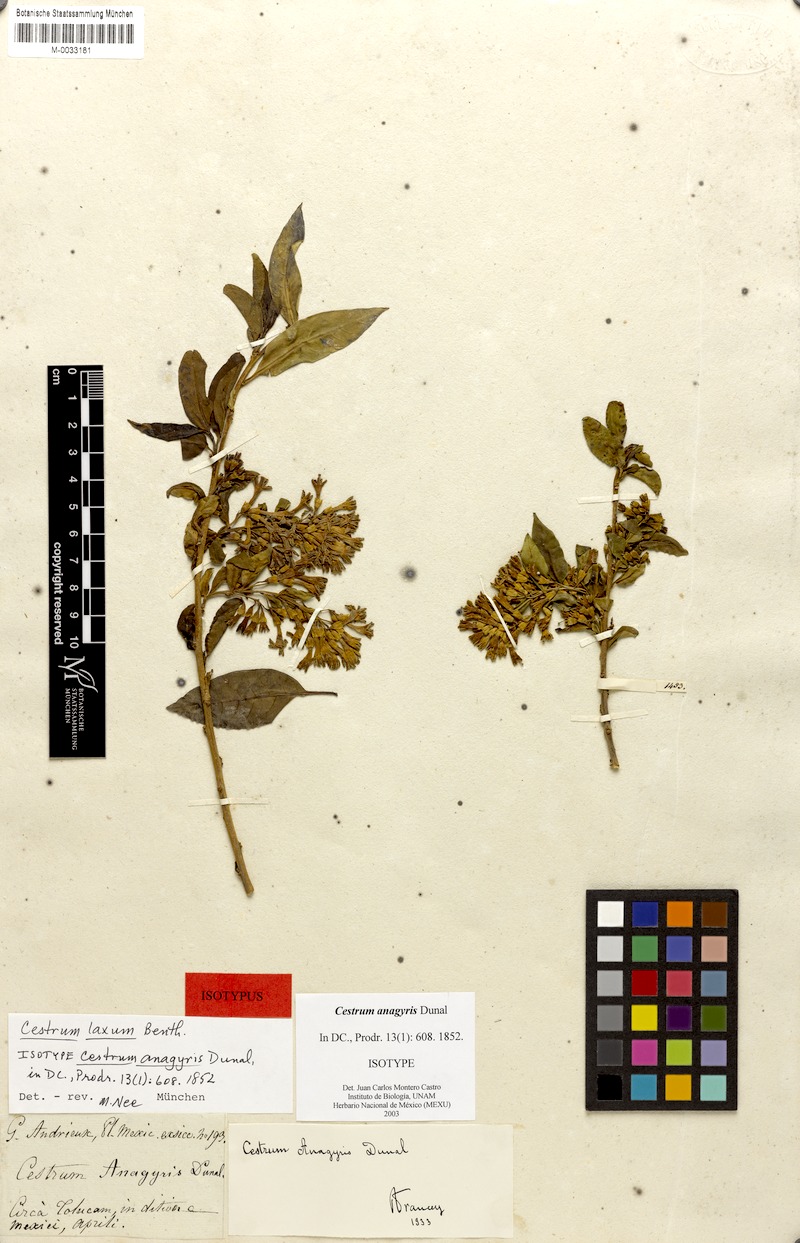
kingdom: Plantae
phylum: Tracheophyta
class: Magnoliopsida
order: Solanales
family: Solanaceae
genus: Cestrum
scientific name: Cestrum laxum
